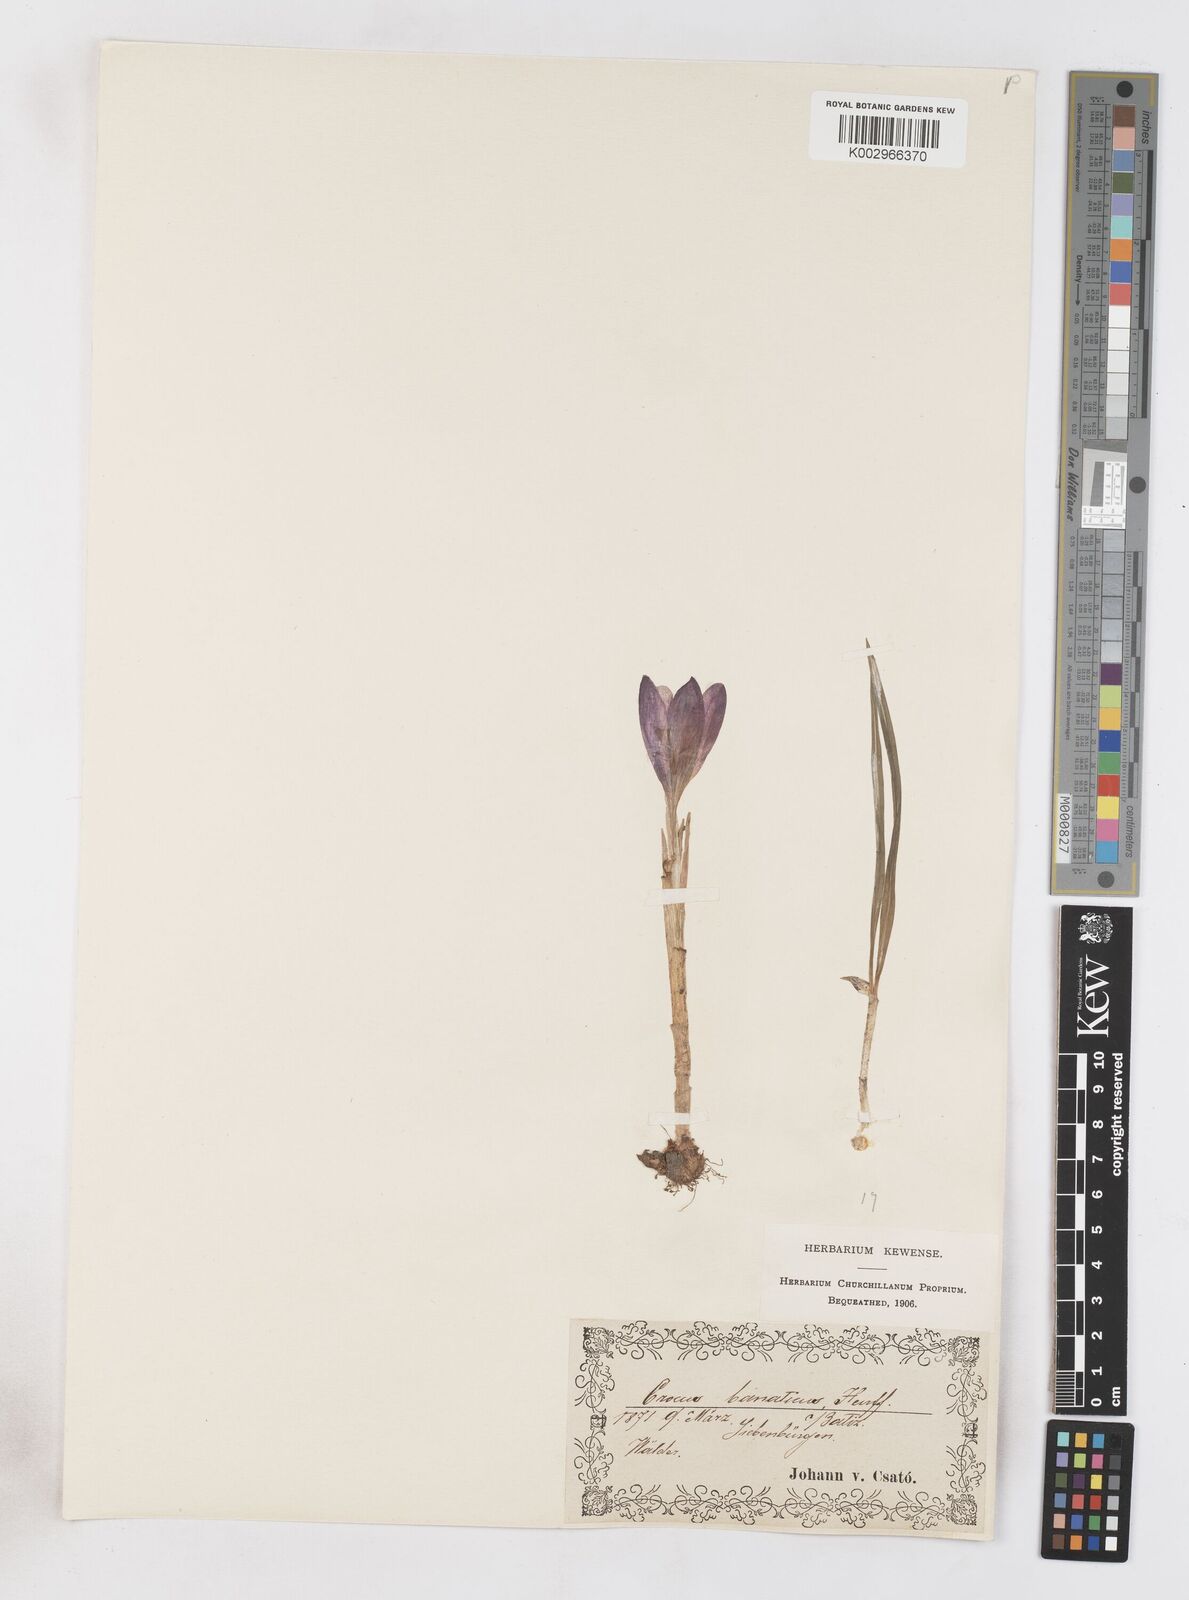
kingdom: Plantae
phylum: Tracheophyta
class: Liliopsida
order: Asparagales
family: Iridaceae
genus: Crocus
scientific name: Crocus vernus
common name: Spring crocus
